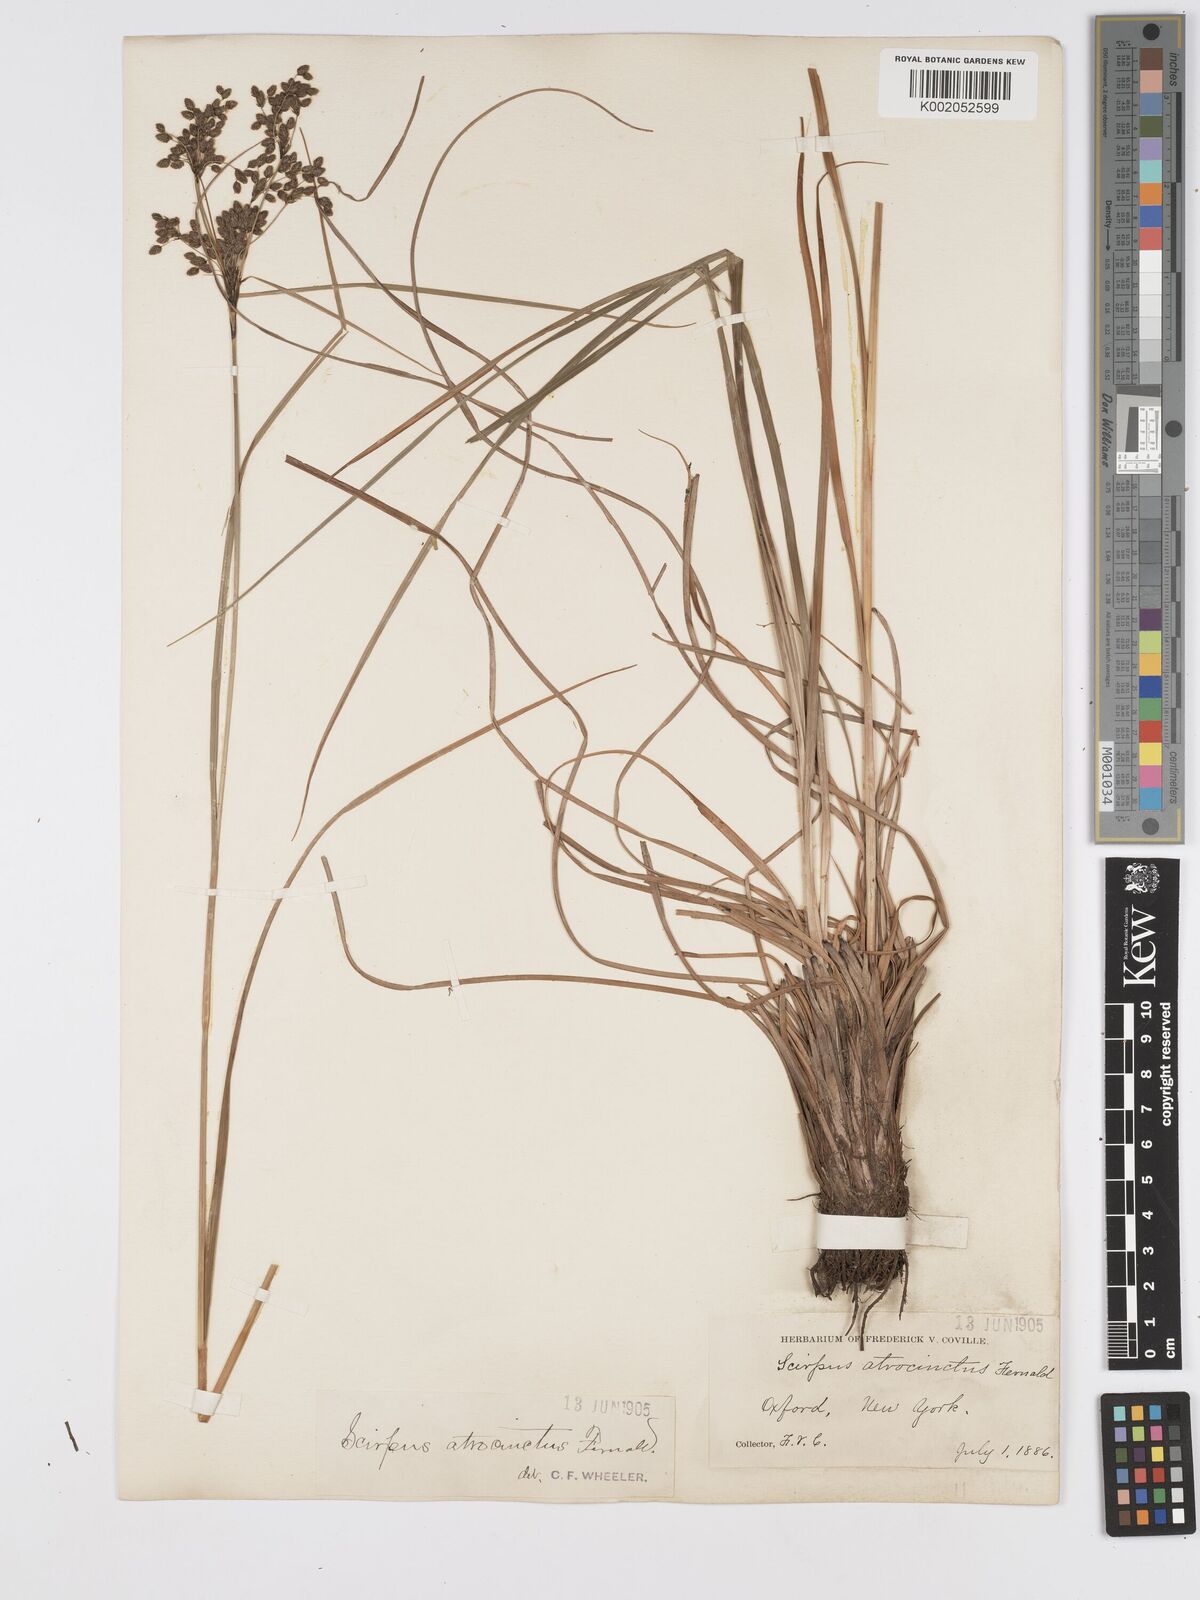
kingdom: Plantae
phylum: Tracheophyta
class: Liliopsida
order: Poales
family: Cyperaceae
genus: Scirpus
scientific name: Scirpus atrocinctus
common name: Black-girdled bulrush
